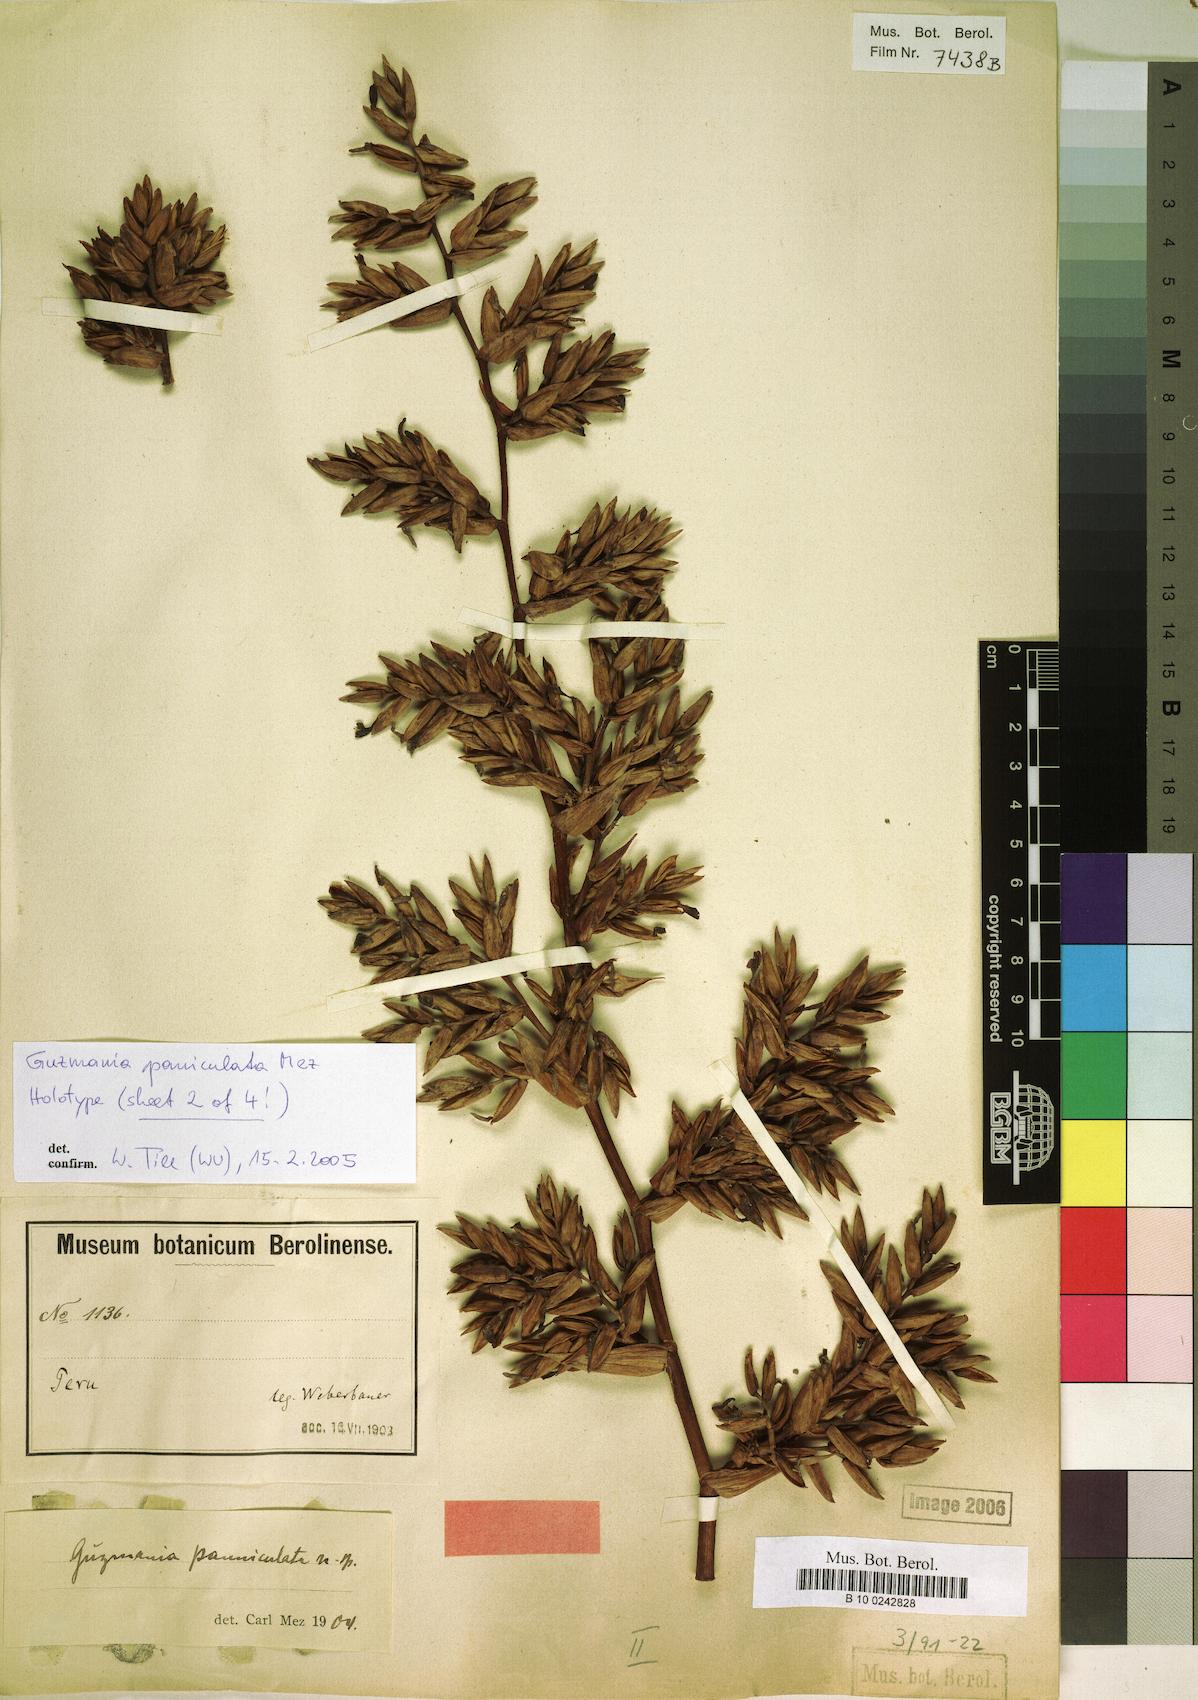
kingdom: Plantae
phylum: Tracheophyta
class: Liliopsida
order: Poales
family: Bromeliaceae
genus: Guzmania
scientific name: Guzmania paniculata
